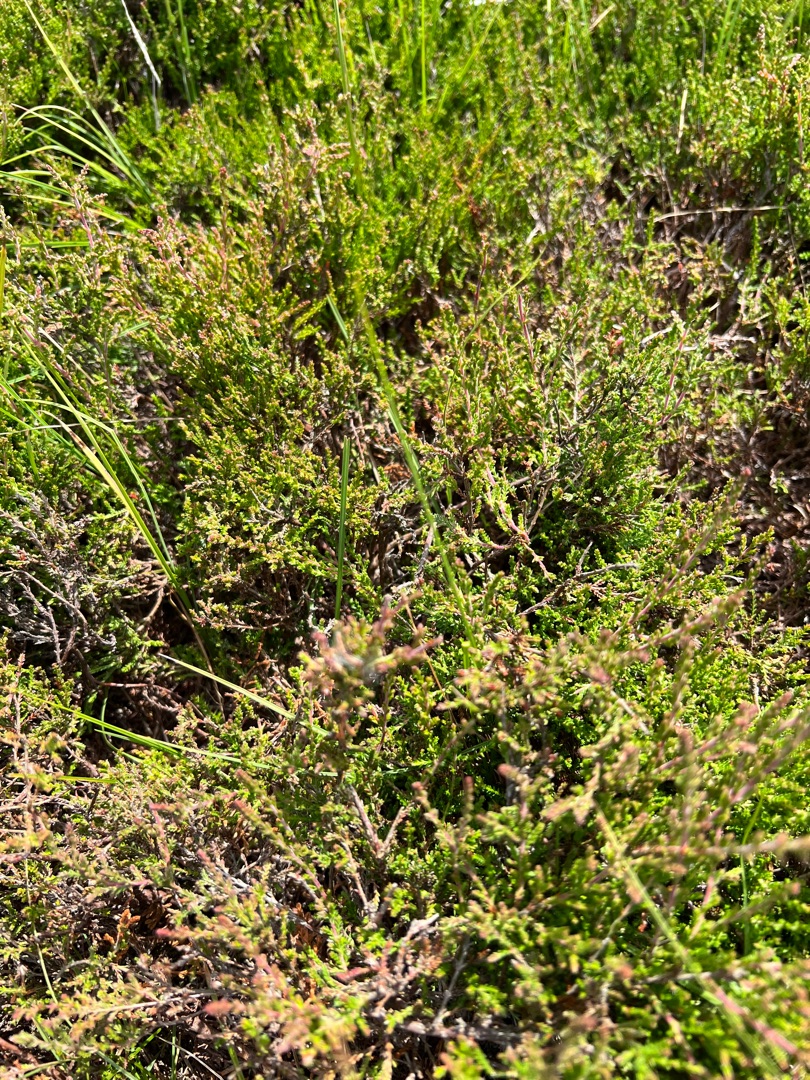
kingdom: Plantae
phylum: Tracheophyta
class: Magnoliopsida
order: Ericales
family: Ericaceae
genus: Calluna
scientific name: Calluna vulgaris
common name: Hedelyng
